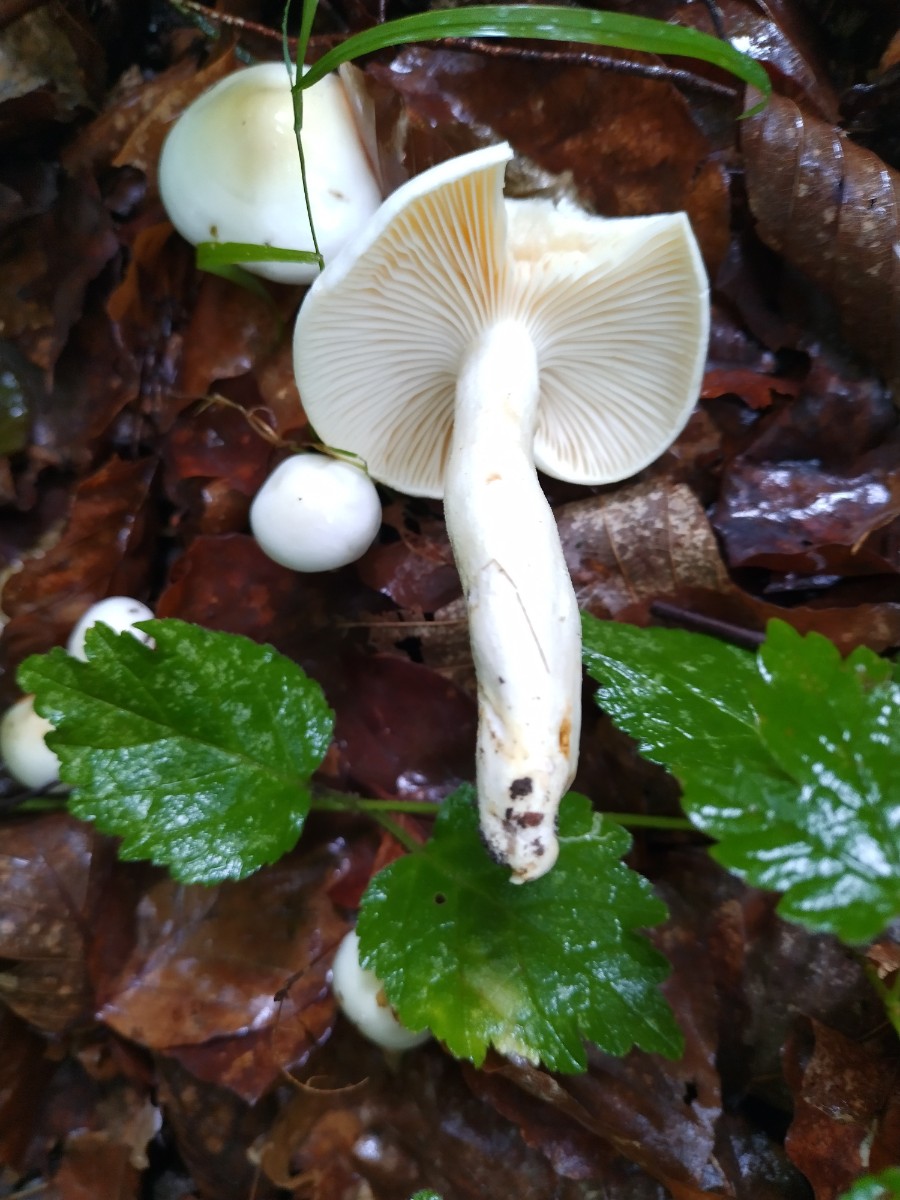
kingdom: Fungi
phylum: Basidiomycota
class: Agaricomycetes
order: Agaricales
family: Hygrophoraceae
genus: Hygrophorus
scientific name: Hygrophorus eburneus
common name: elfenbens-sneglehat
